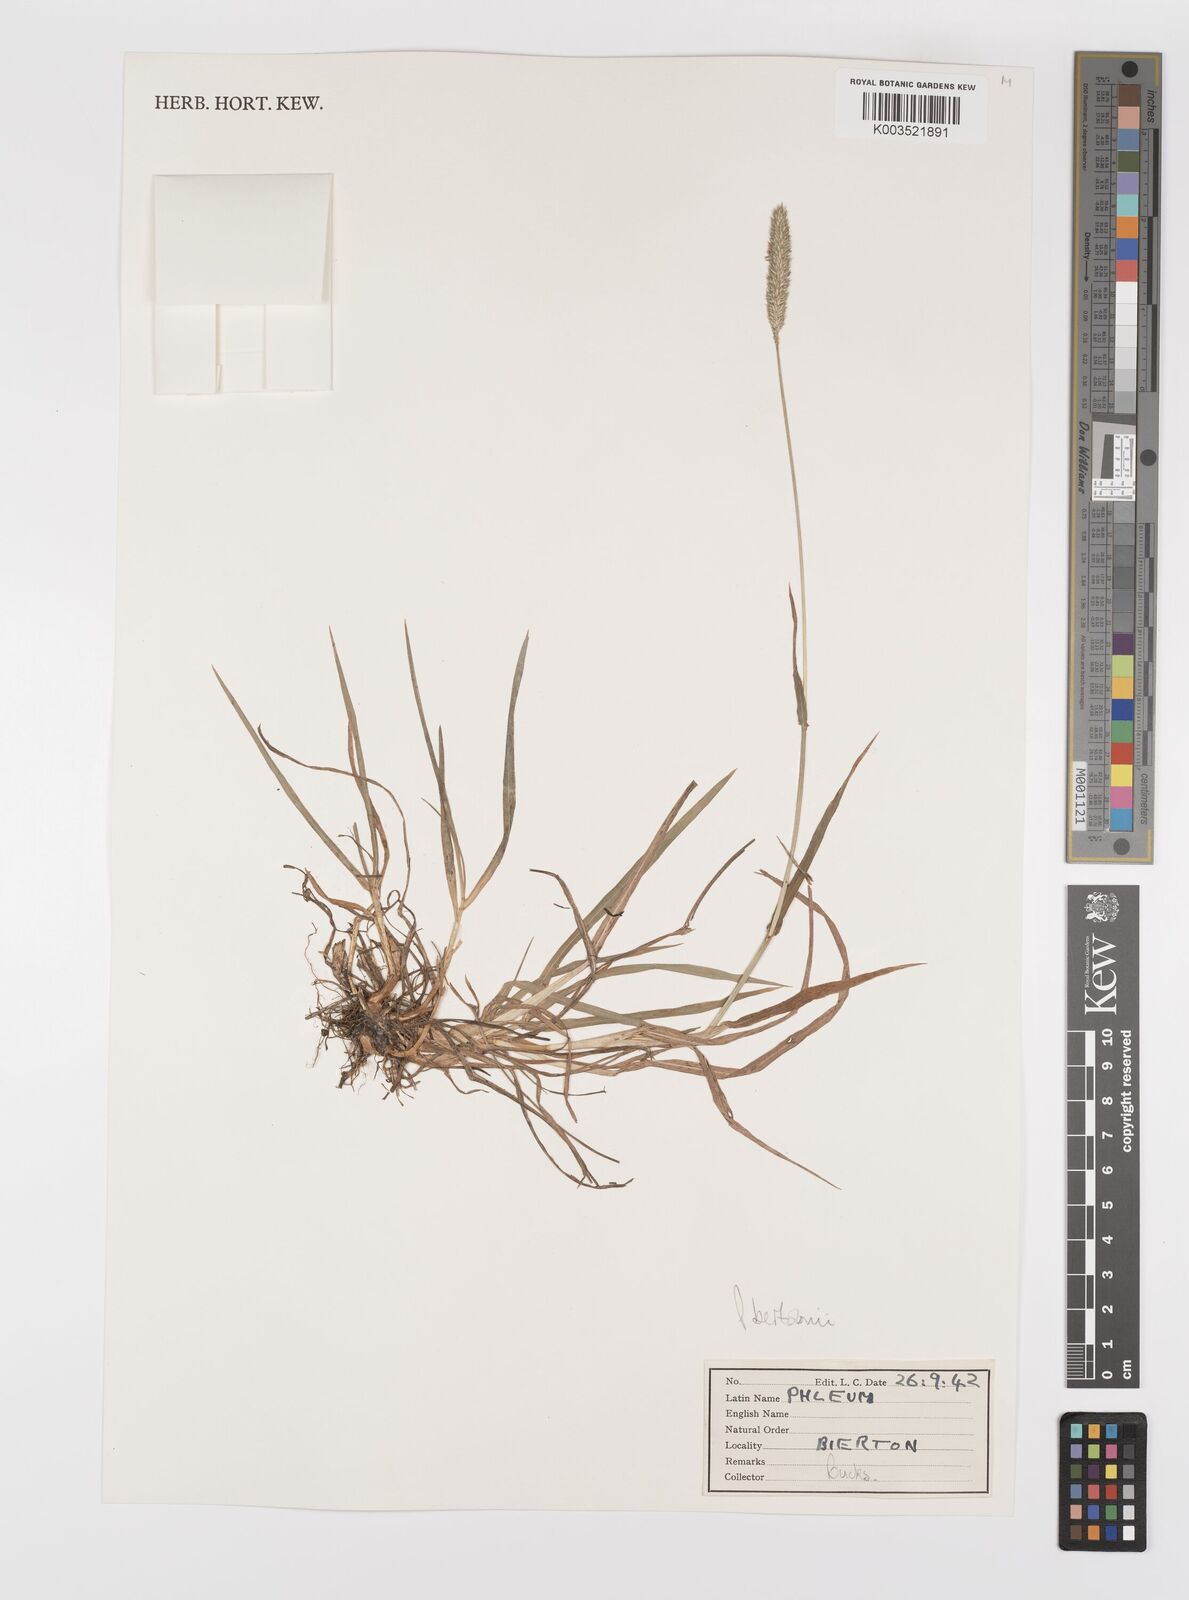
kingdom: Plantae
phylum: Tracheophyta
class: Liliopsida
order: Poales
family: Poaceae
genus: Phleum
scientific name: Phleum bertolonii
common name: Smaller cat's-tail
